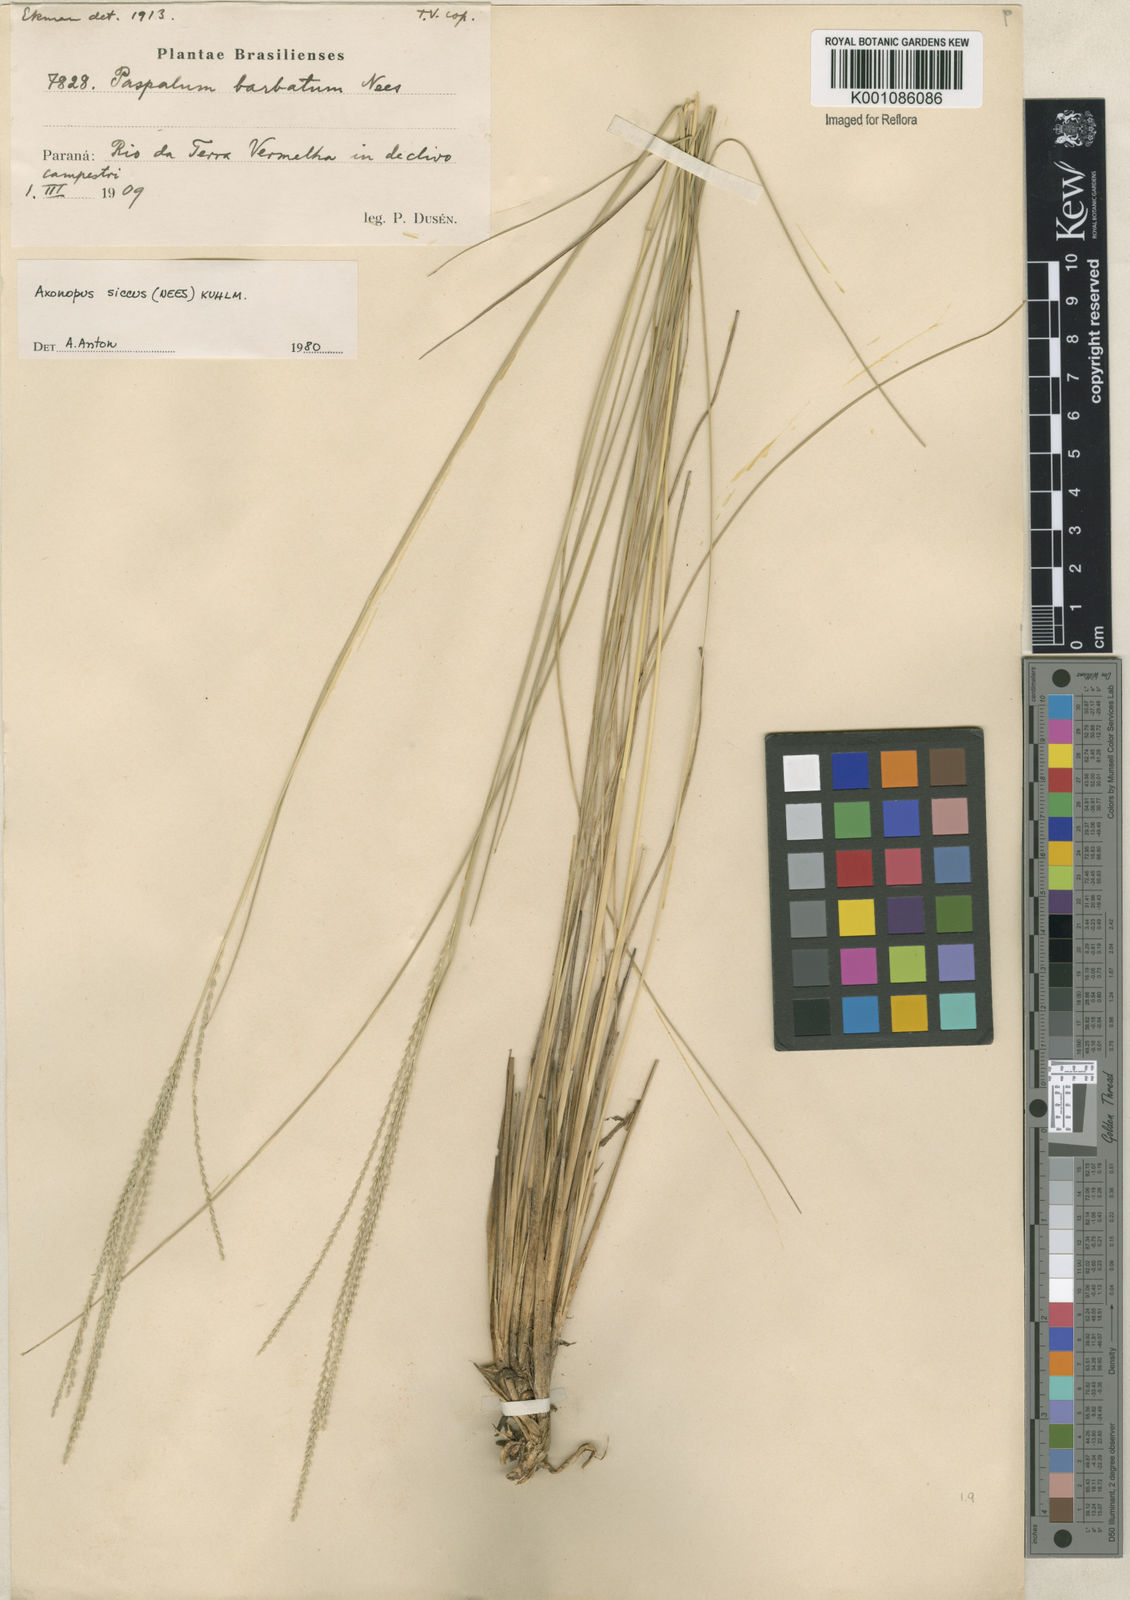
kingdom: Plantae
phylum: Tracheophyta
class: Liliopsida
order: Poales
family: Poaceae
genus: Axonopus
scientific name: Axonopus siccus
